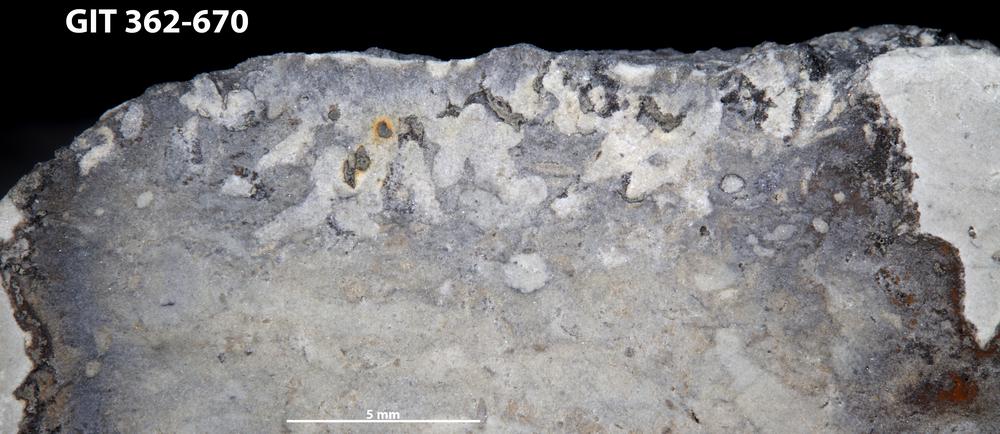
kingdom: Animalia
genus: Chondrites
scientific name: Chondrites
